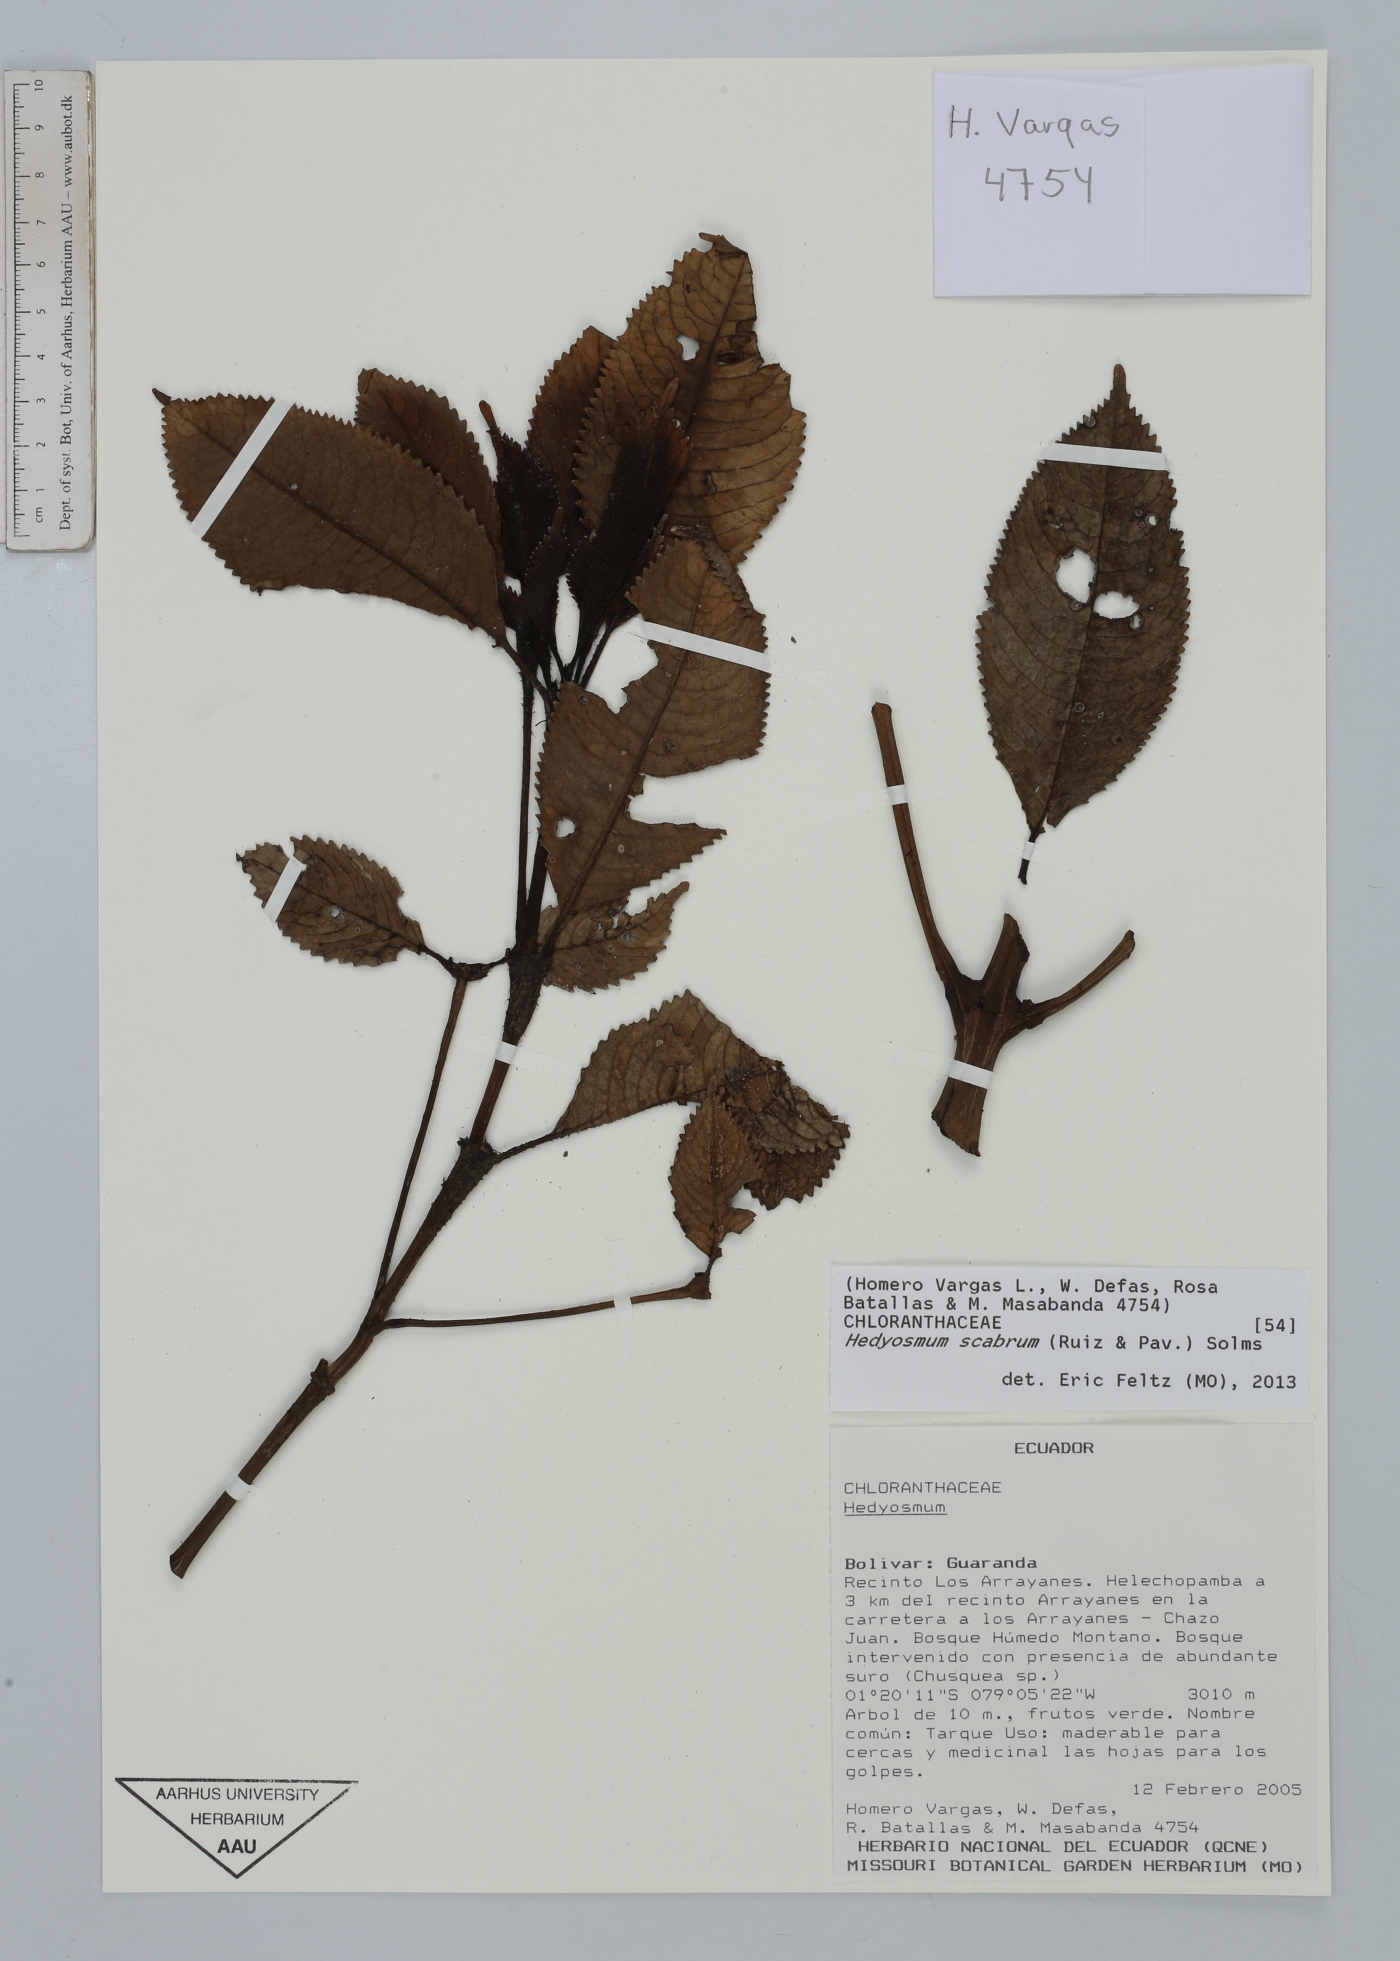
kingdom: Plantae
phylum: Tracheophyta
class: Magnoliopsida
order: Chloranthales
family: Chloranthaceae
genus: Hedyosmum
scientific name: Hedyosmum scabrum
